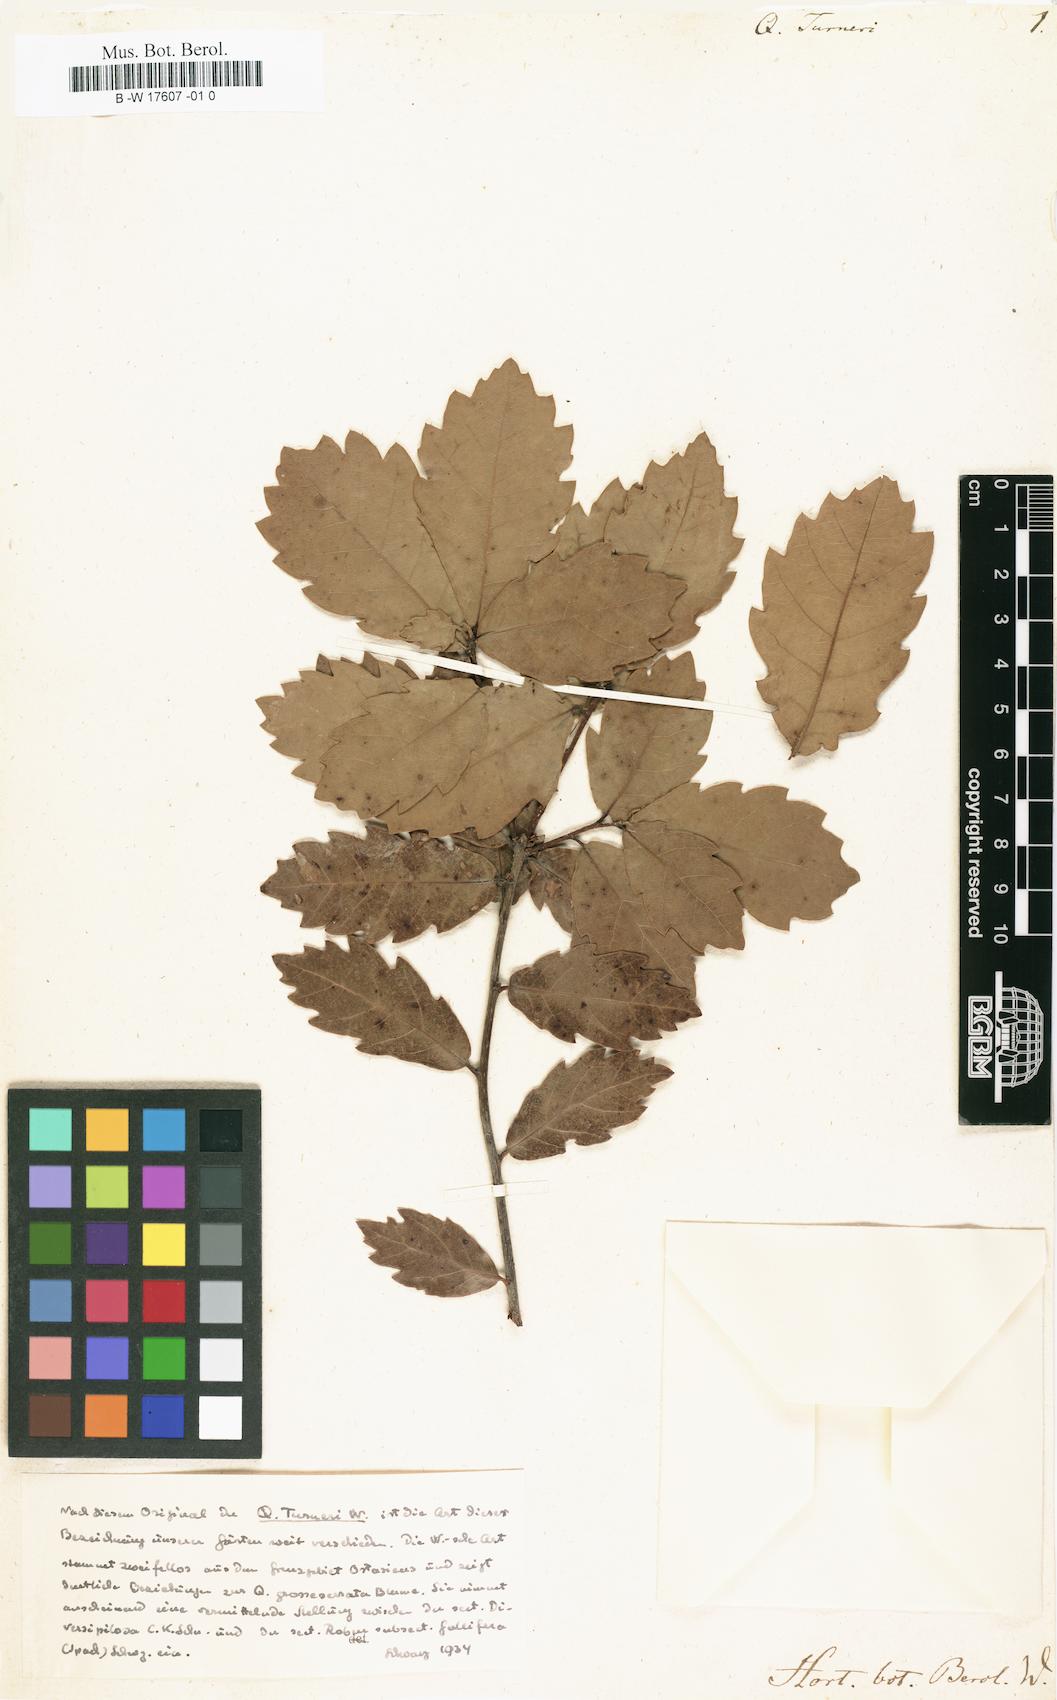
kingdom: Plantae
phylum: Tracheophyta
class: Magnoliopsida
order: Fagales
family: Fagaceae
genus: Quercus
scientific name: Quercus turneri
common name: Turner's oak
